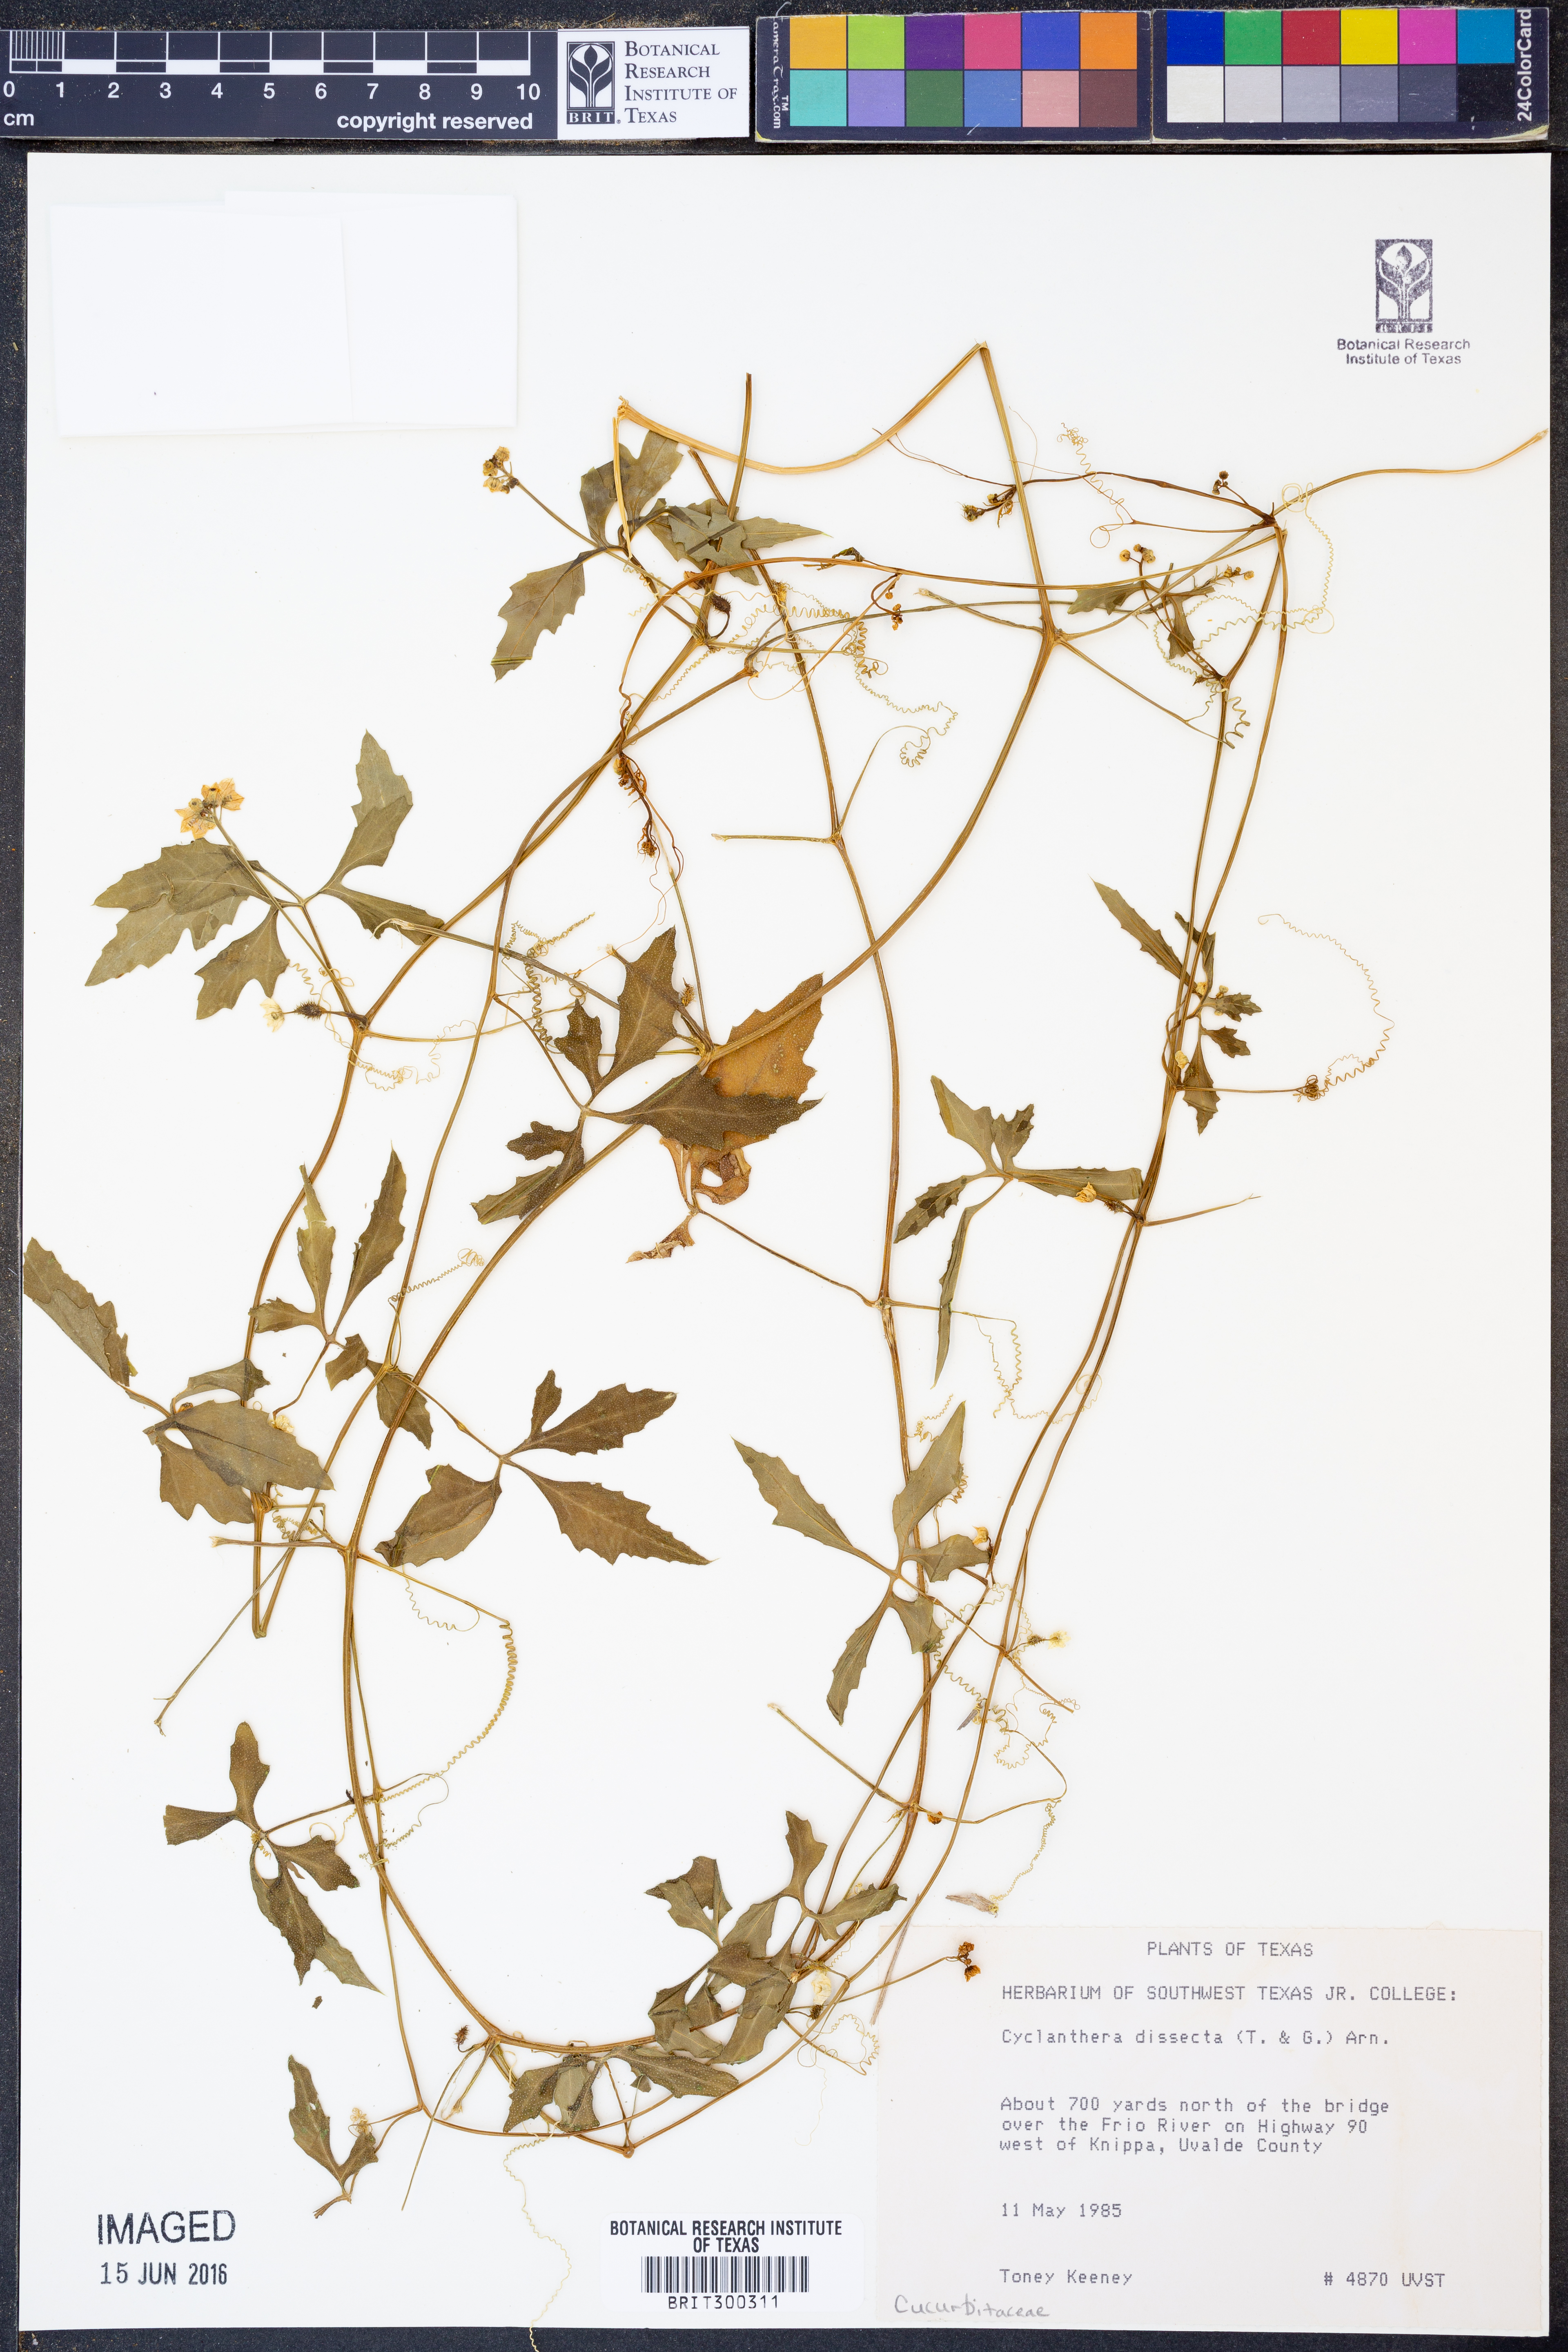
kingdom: Plantae
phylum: Tracheophyta
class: Magnoliopsida
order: Cucurbitales
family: Cucurbitaceae
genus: Cyclanthera
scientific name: Cyclanthera dissecta
